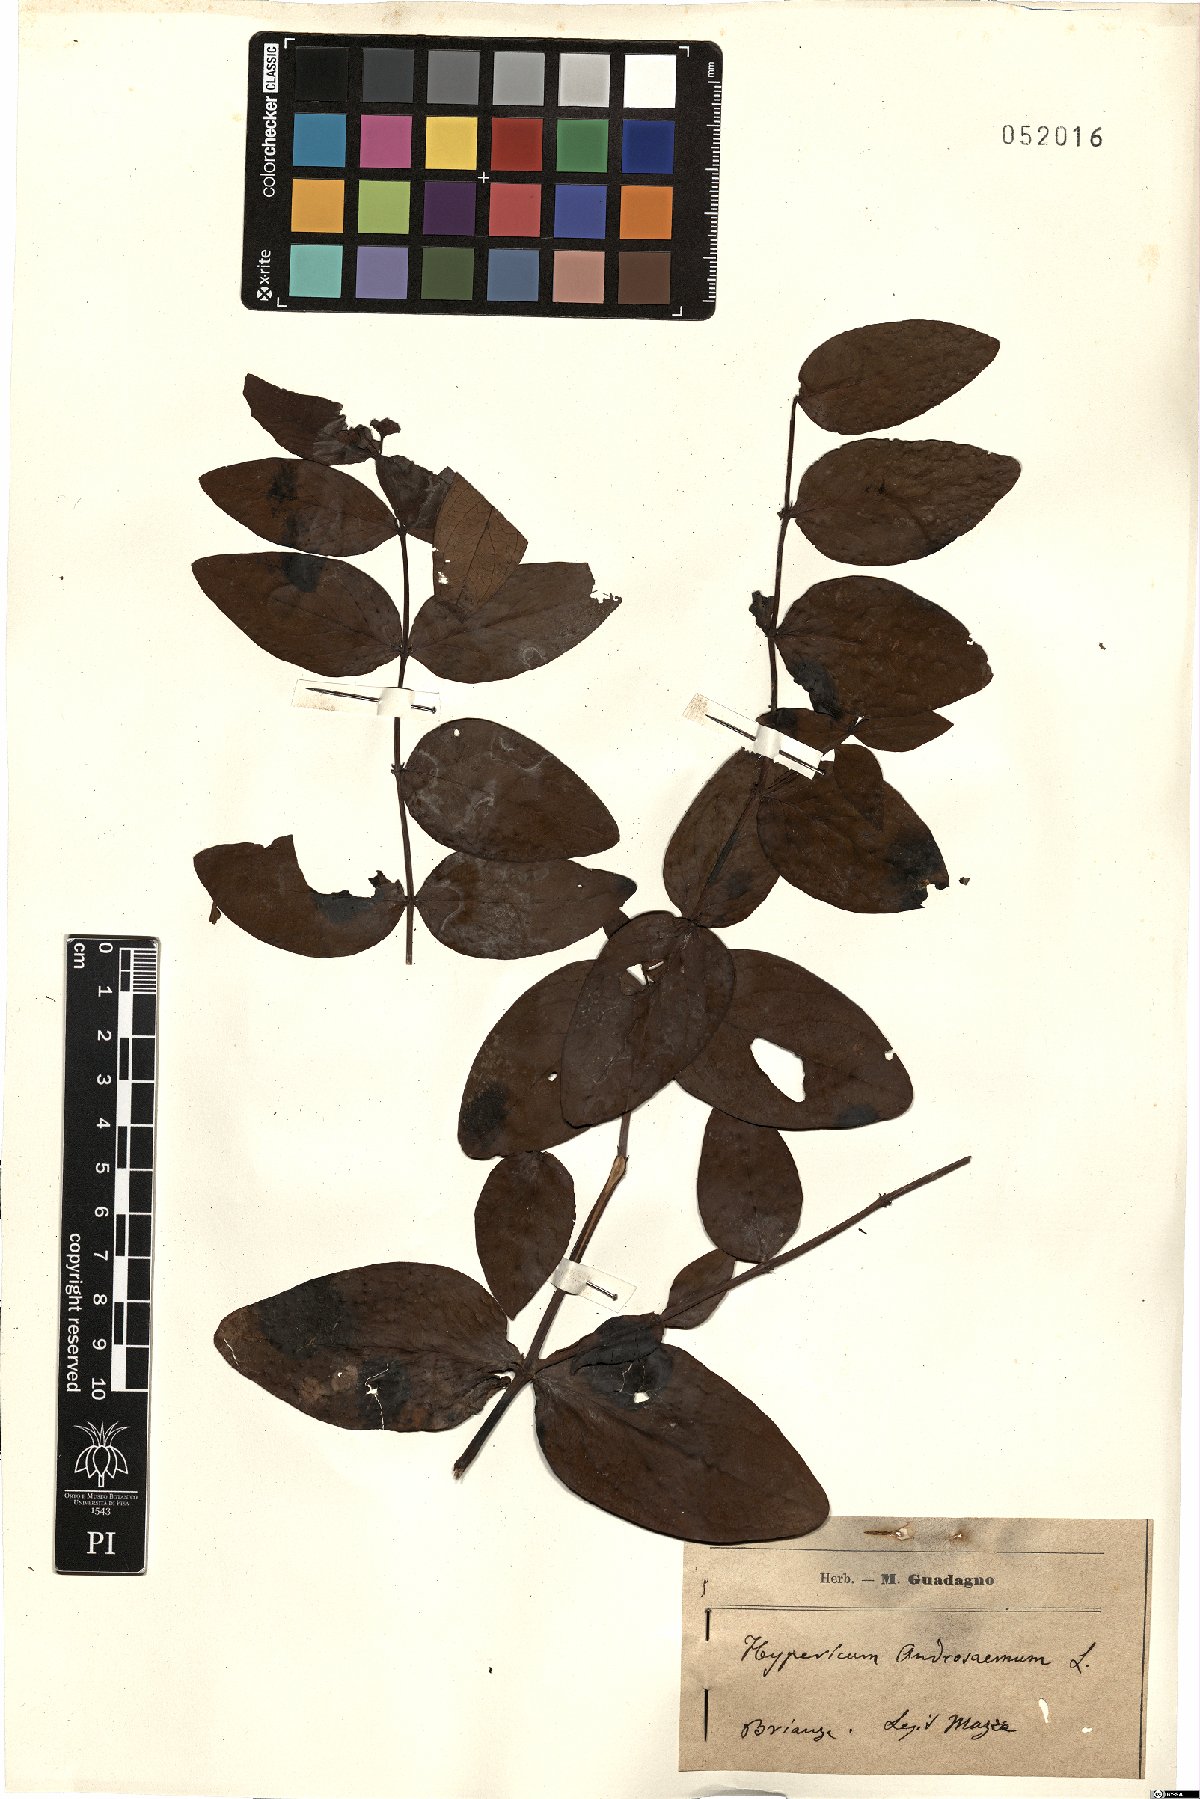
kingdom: Plantae
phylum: Tracheophyta
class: Magnoliopsida
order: Malpighiales
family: Hypericaceae
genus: Hypericum
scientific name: Hypericum androsaemum
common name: Sweet-amber
